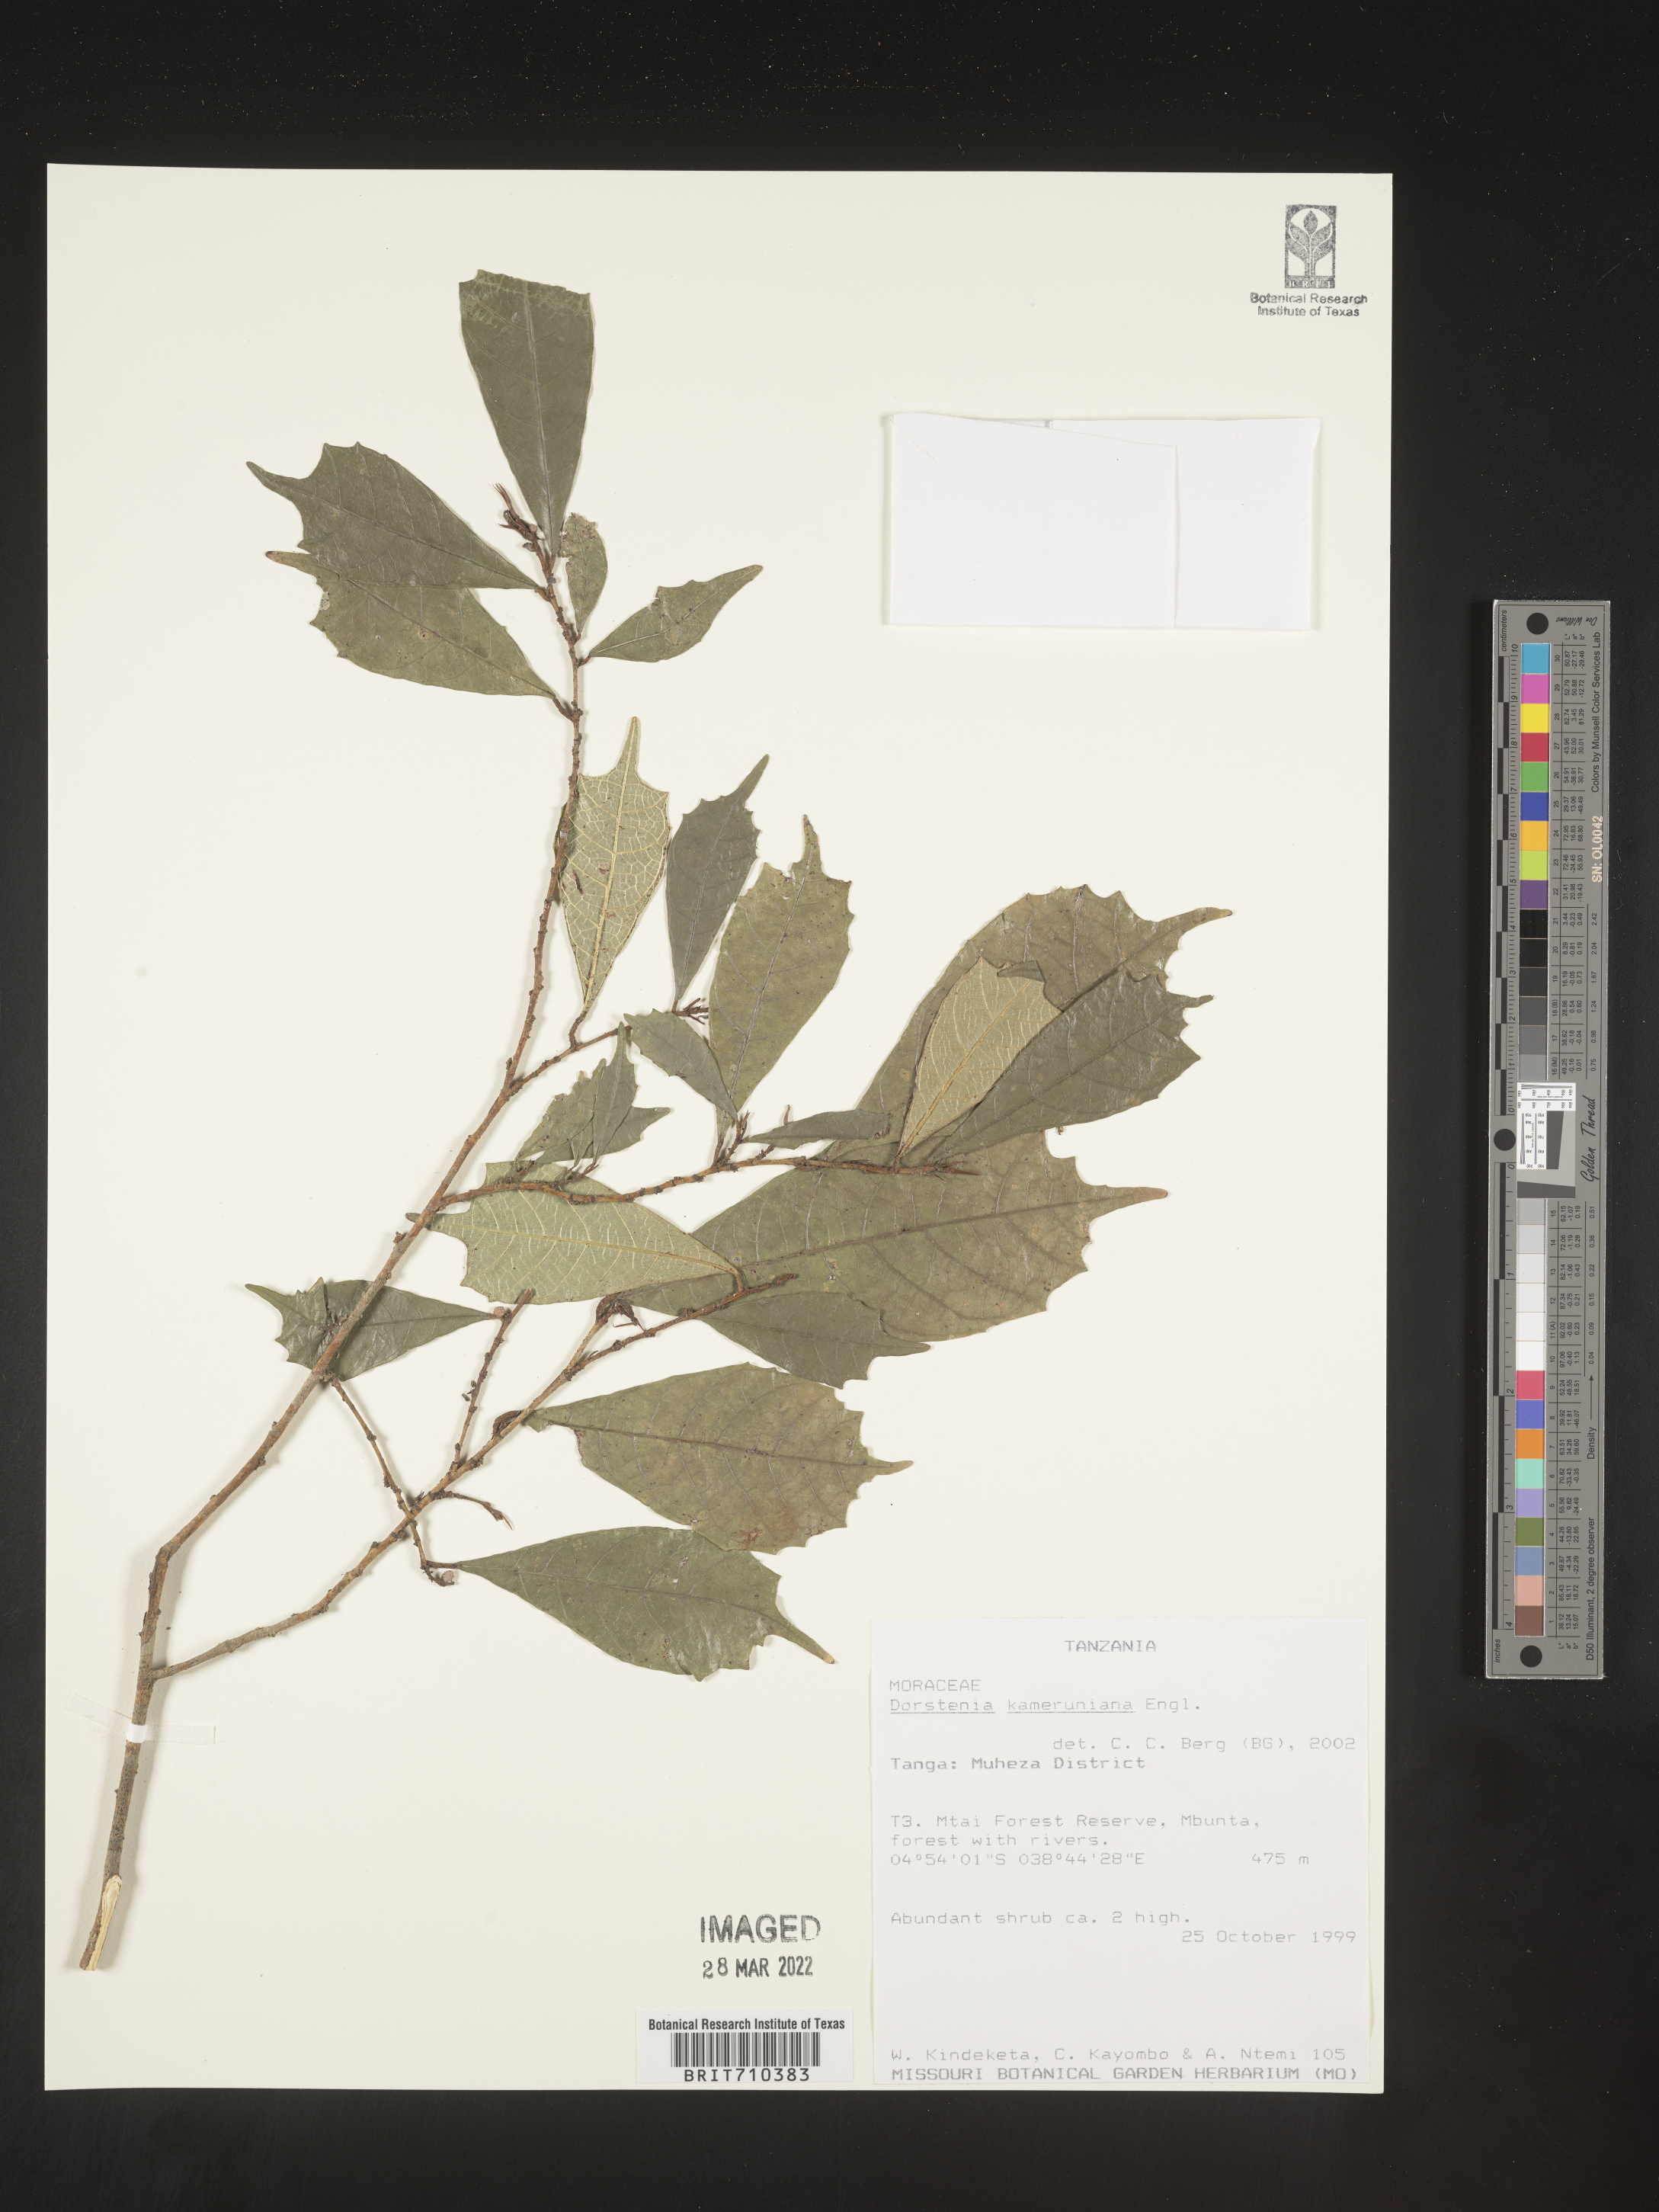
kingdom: Plantae
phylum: Tracheophyta
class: Magnoliopsida
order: Rosales
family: Moraceae
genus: Dorstenia
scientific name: Dorstenia
